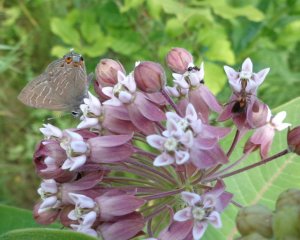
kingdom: Animalia
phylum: Arthropoda
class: Insecta
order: Lepidoptera
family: Lycaenidae
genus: Satyrium
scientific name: Satyrium liparops
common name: Striped Hairstreak
